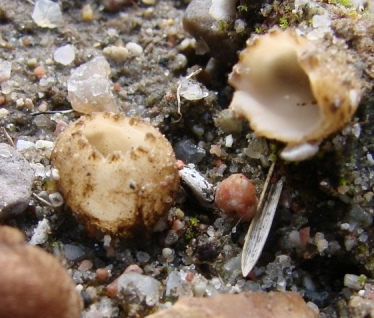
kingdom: Fungi
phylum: Ascomycota
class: Pezizomycetes
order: Pezizales
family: Pyronemataceae
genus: Geopora
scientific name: Geopora tenuis
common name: frit jordbæger
